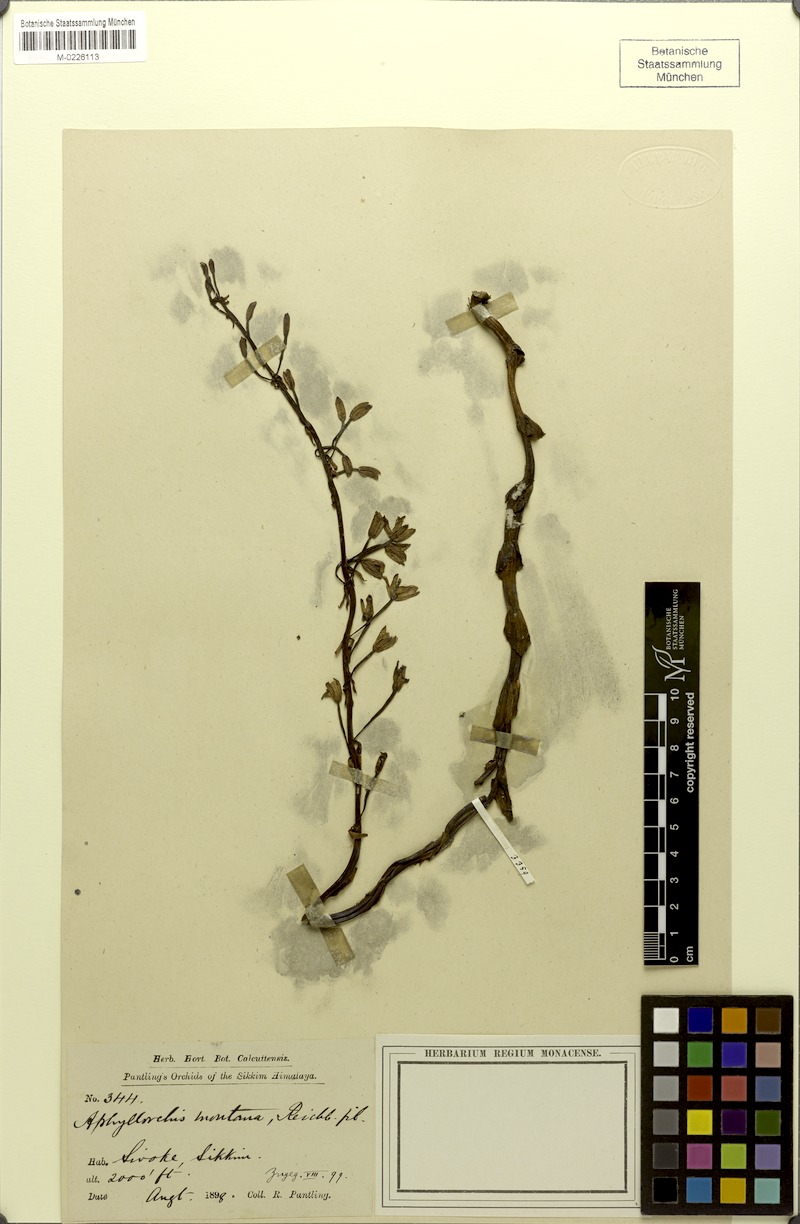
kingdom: Plantae
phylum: Tracheophyta
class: Liliopsida
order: Asparagales
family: Orchidaceae
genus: Aphyllorchis
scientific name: Aphyllorchis montana
